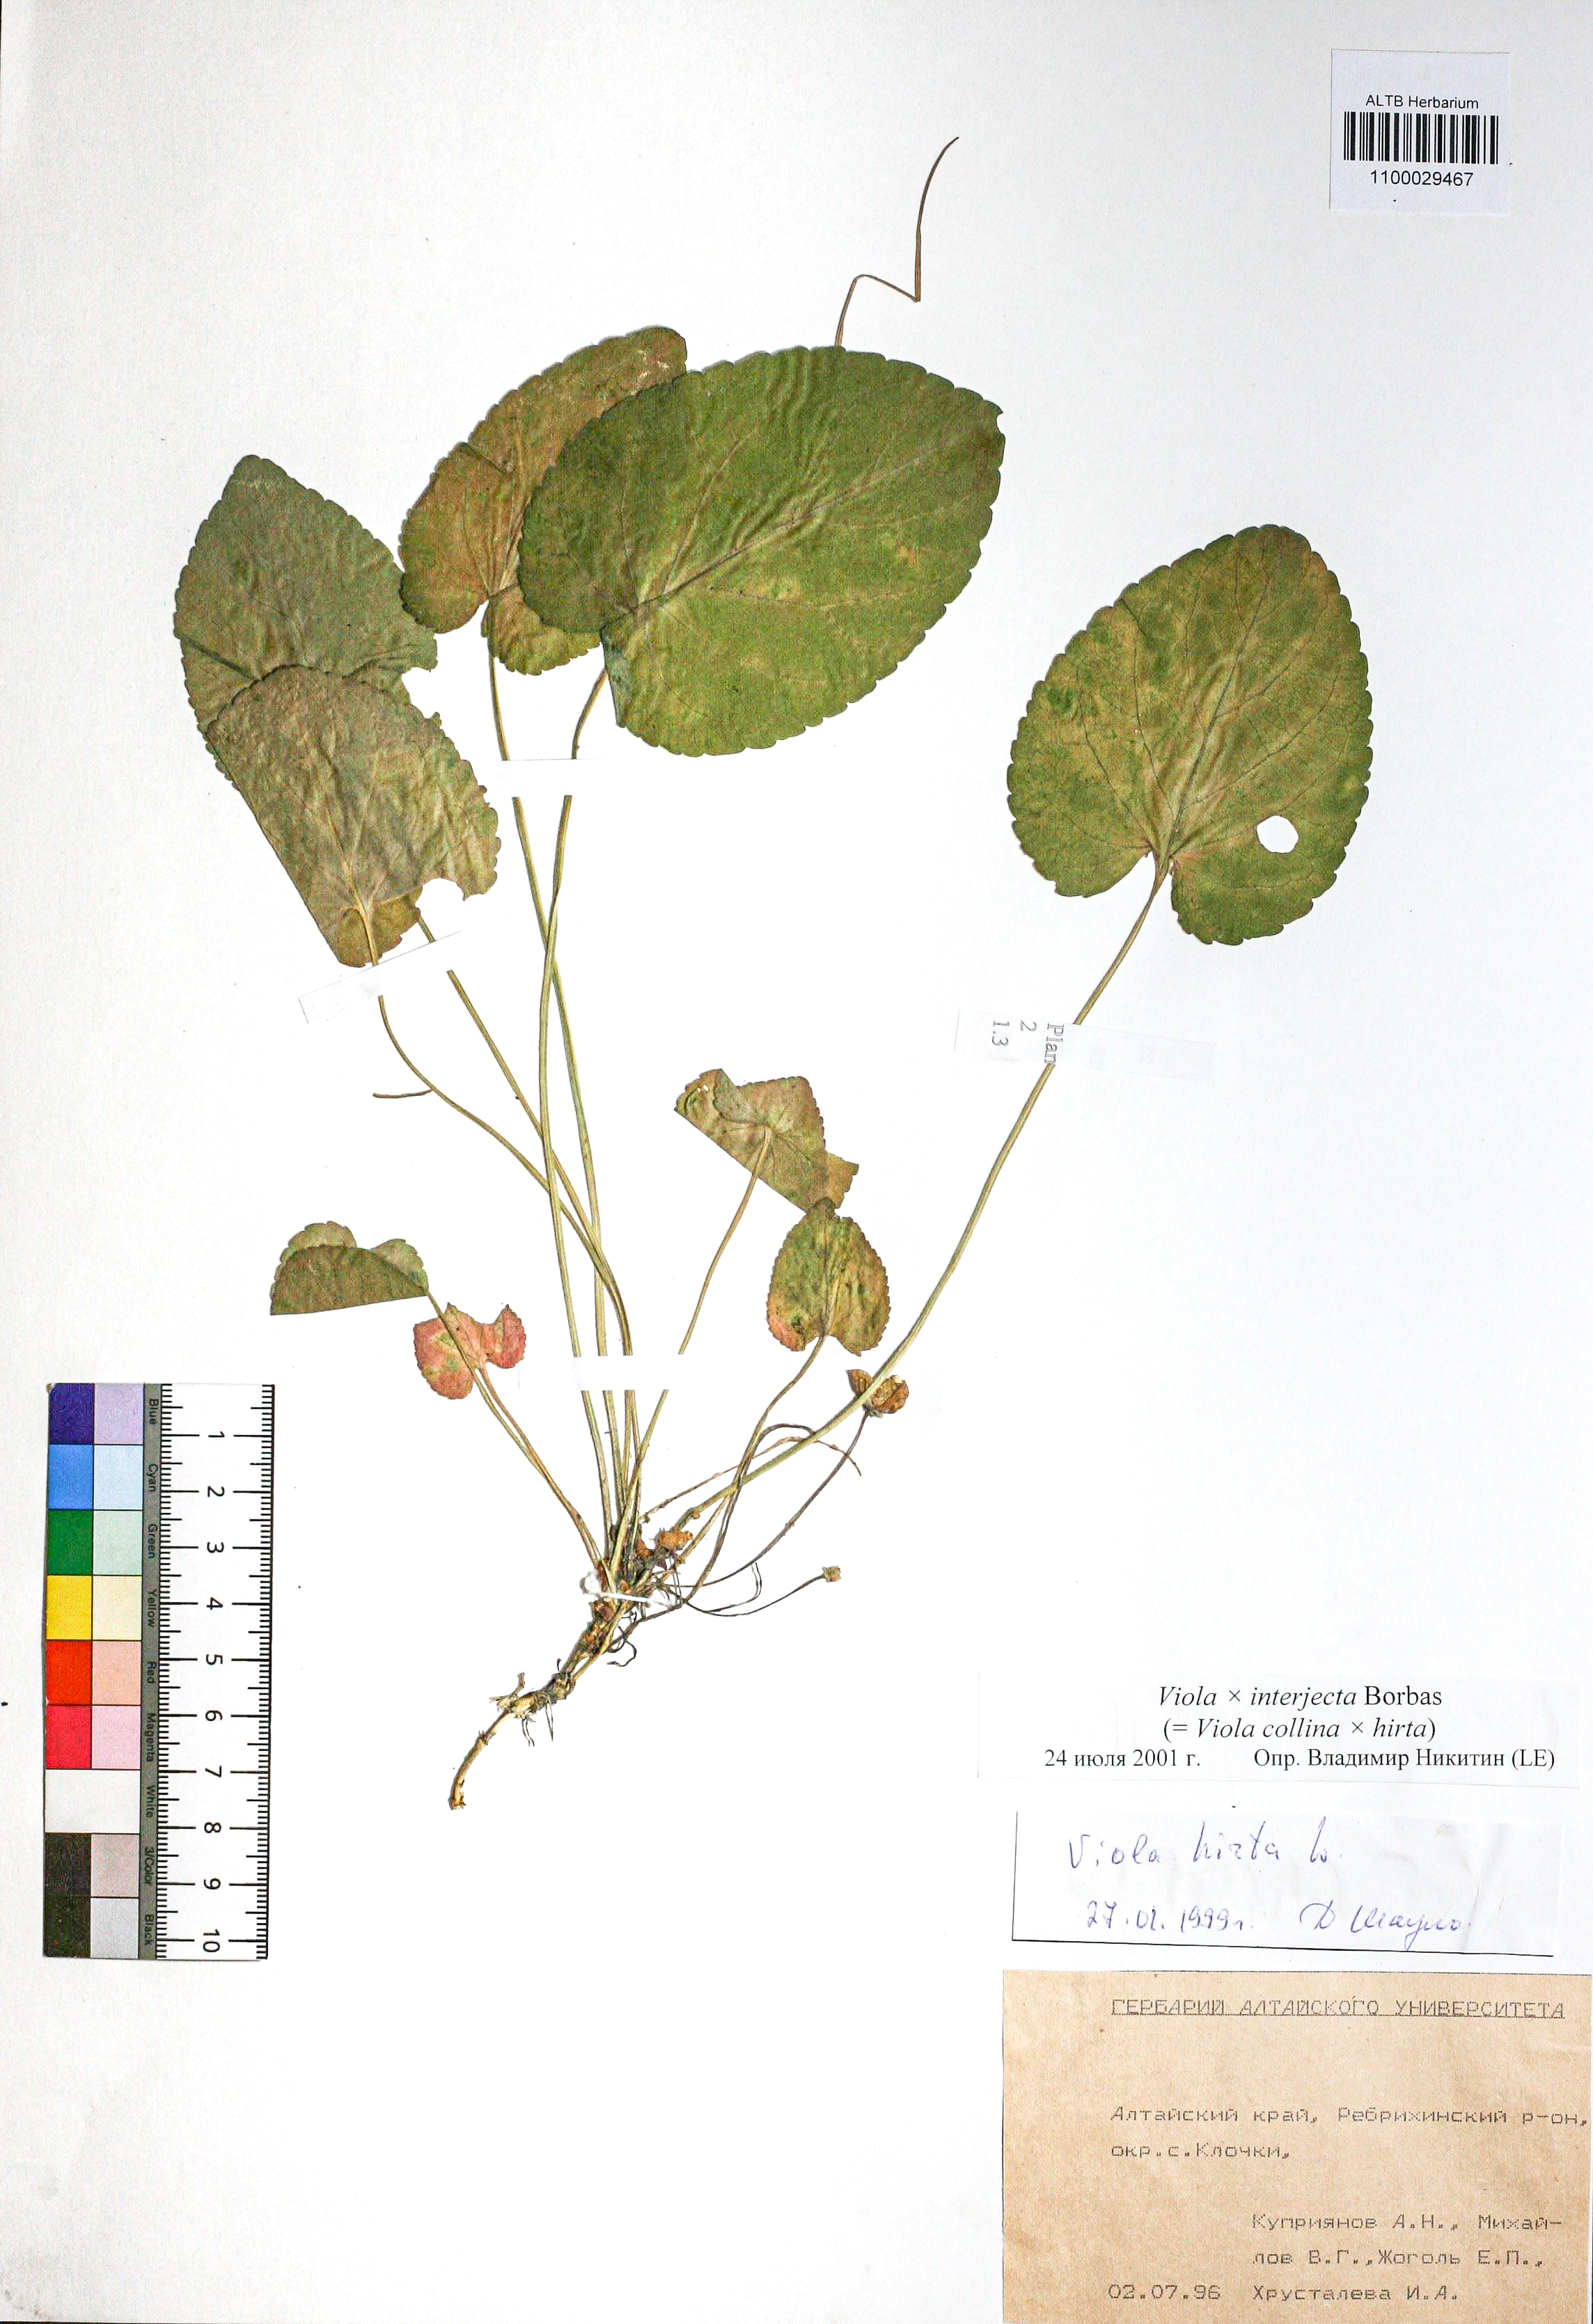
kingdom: Plantae
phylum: Tracheophyta
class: Magnoliopsida
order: Malpighiales
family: Violaceae
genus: Viola
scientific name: Viola interjecta
